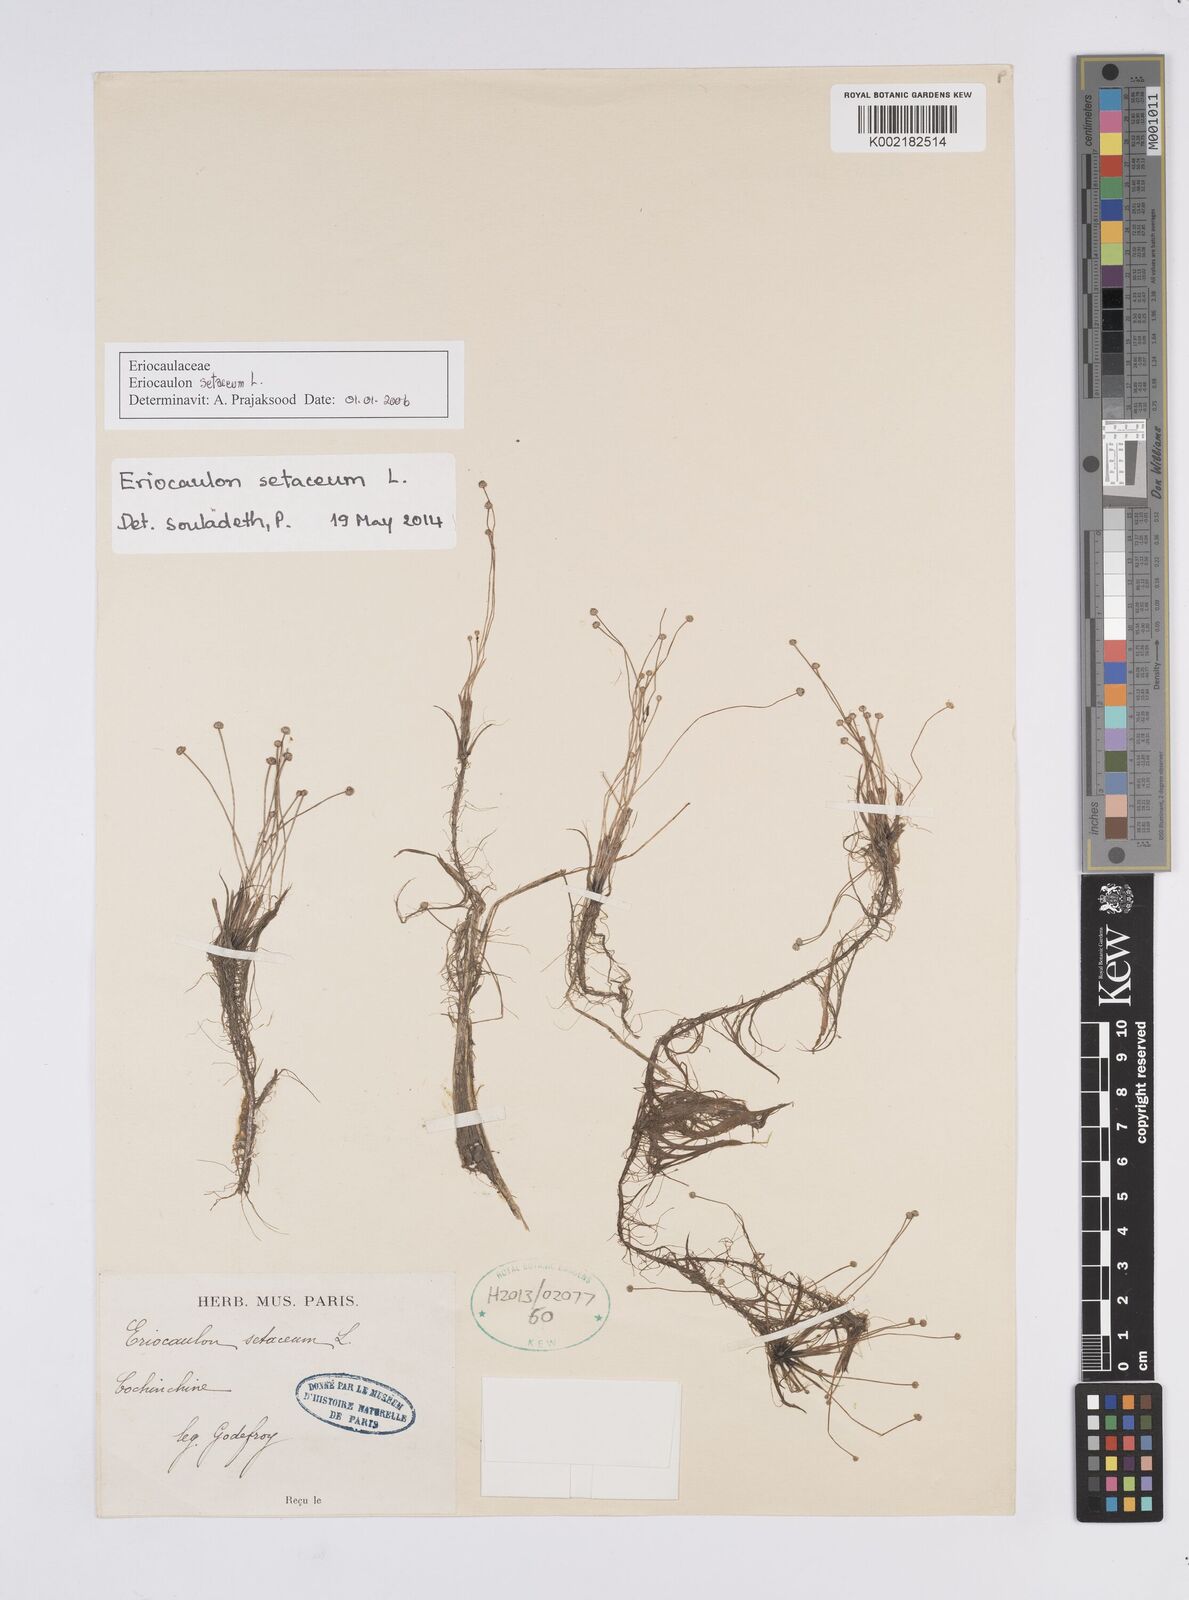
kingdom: Plantae
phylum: Tracheophyta
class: Liliopsida
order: Poales
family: Eriocaulaceae
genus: Eriocaulon
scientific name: Eriocaulon setaceum
